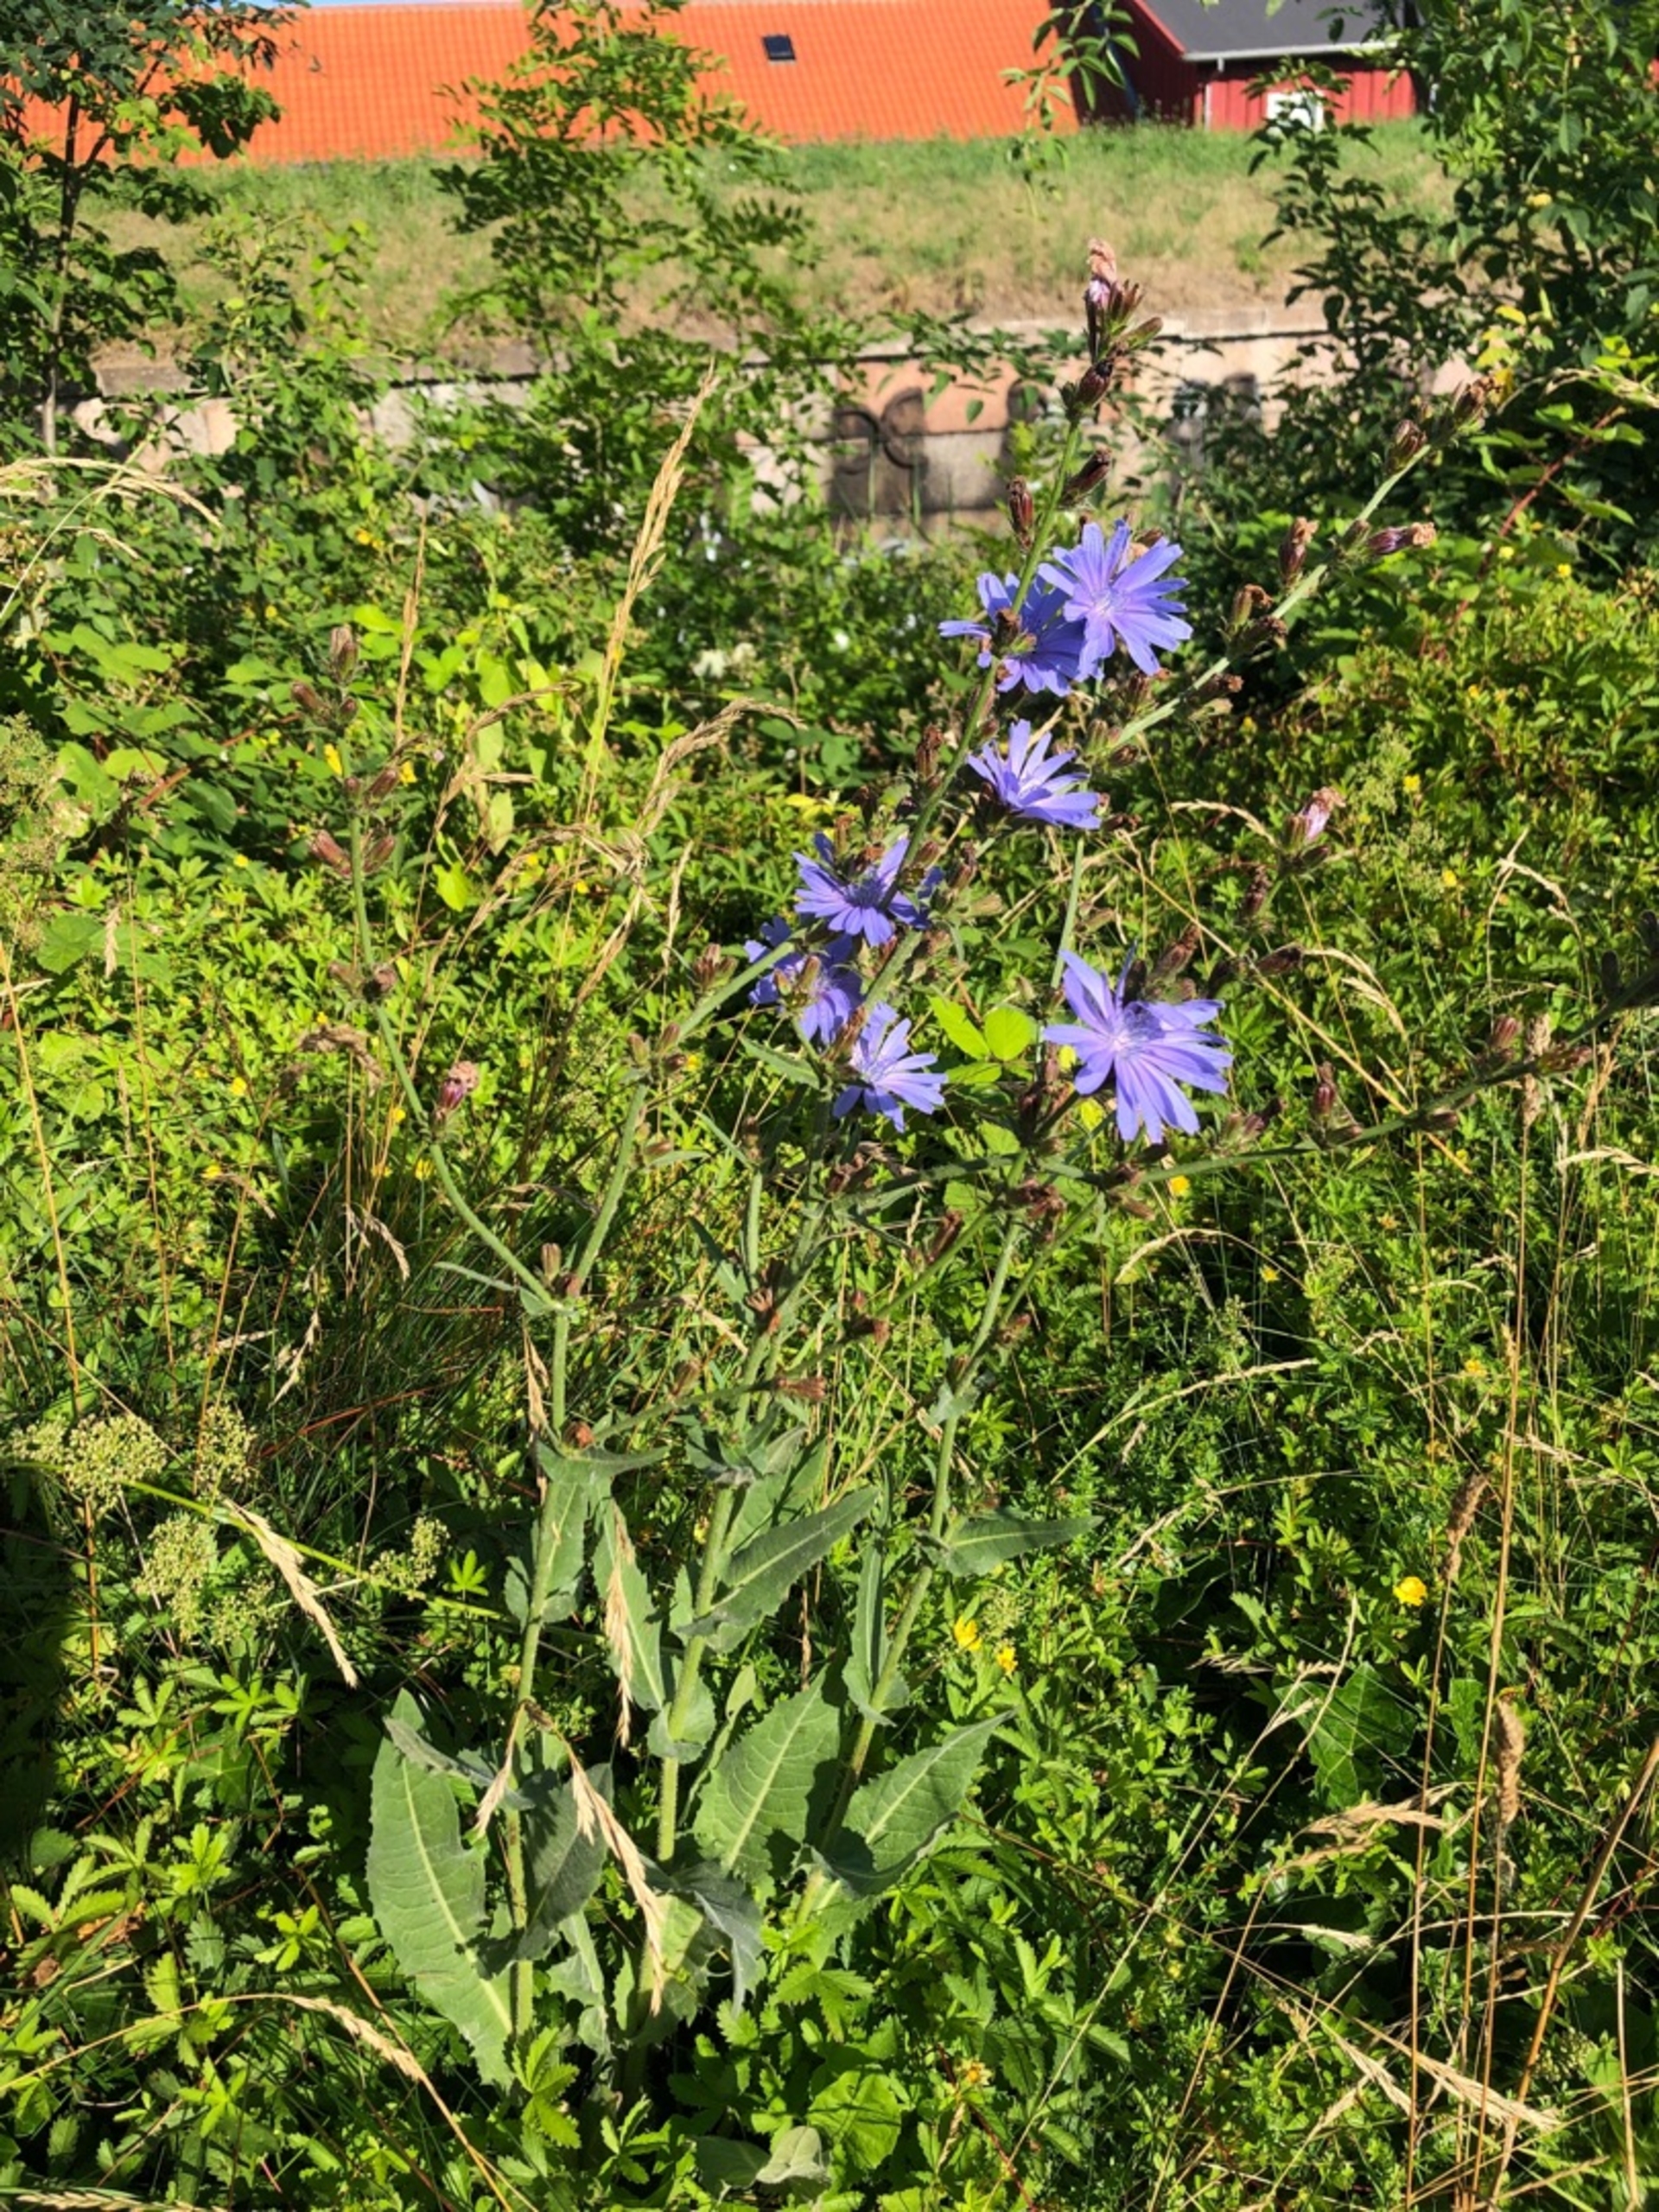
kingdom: Plantae
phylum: Tracheophyta
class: Magnoliopsida
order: Asterales
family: Asteraceae
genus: Cichorium
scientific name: Cichorium intybus
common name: Cikorie
